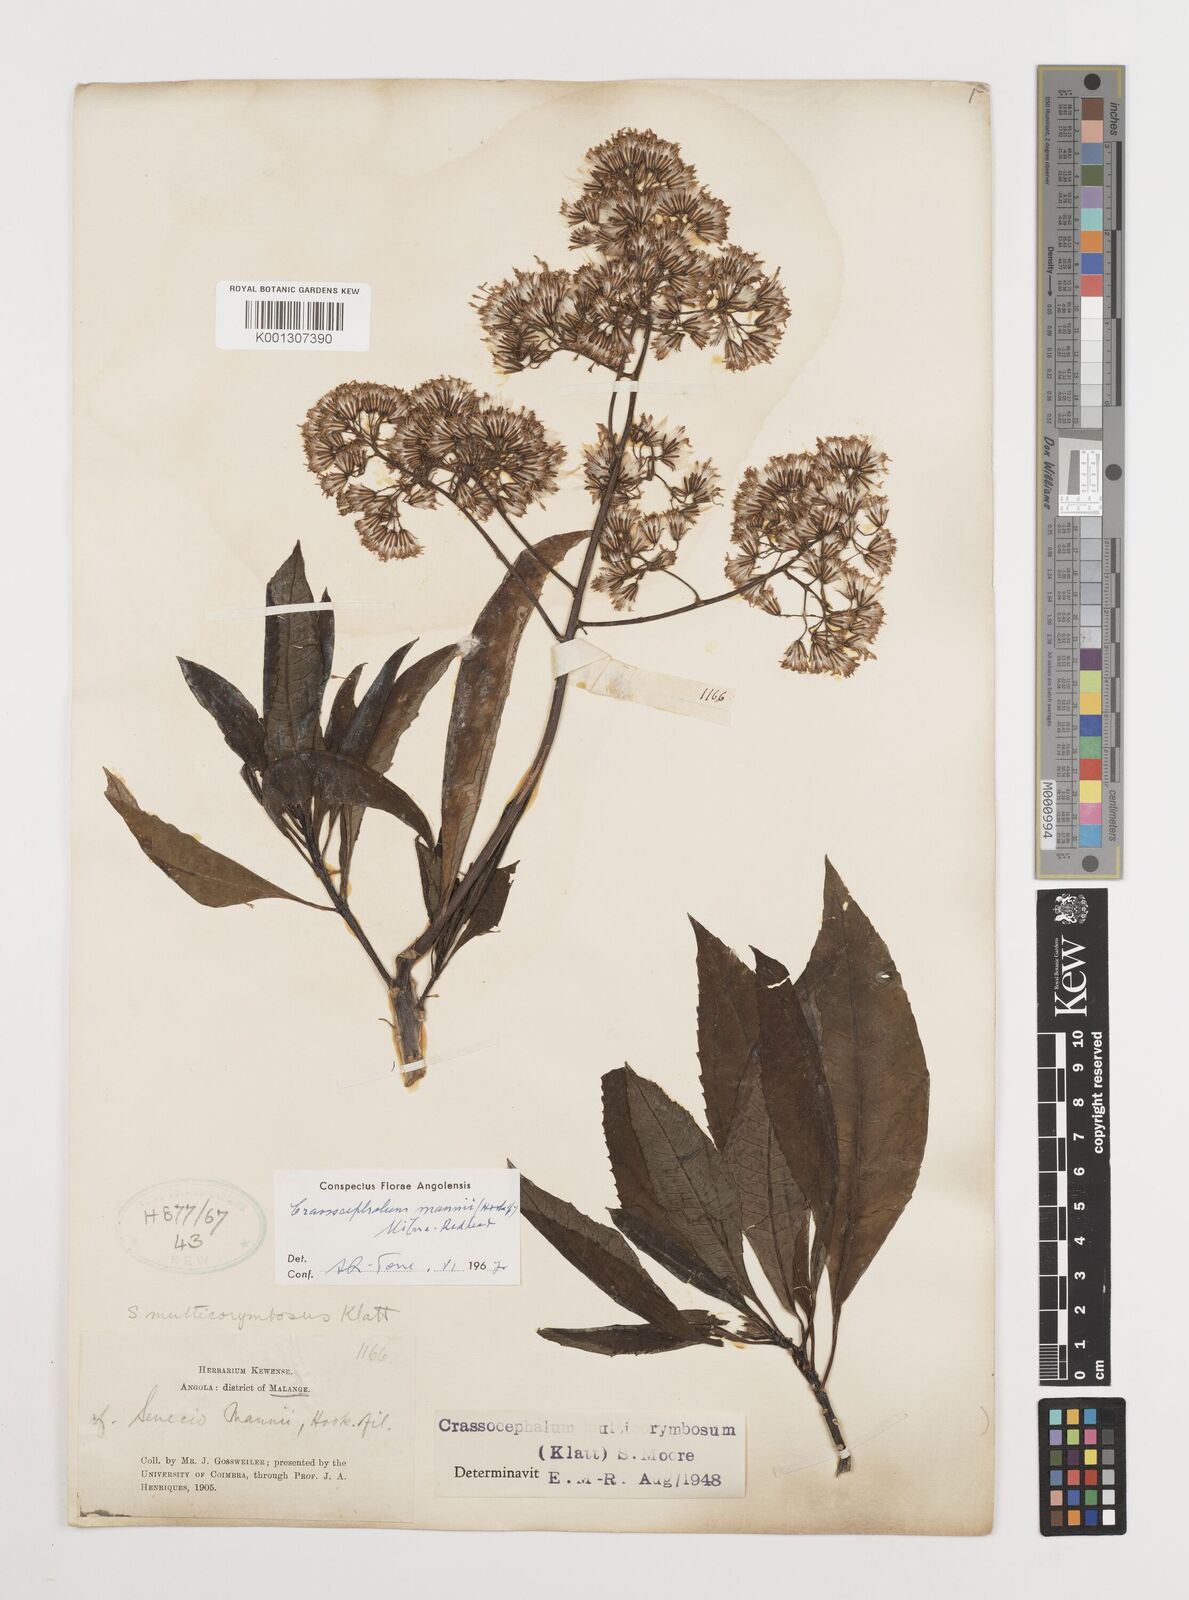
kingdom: Plantae
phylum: Tracheophyta
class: Magnoliopsida
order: Asterales
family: Asteraceae
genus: Solanecio
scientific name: Solanecio mannii
